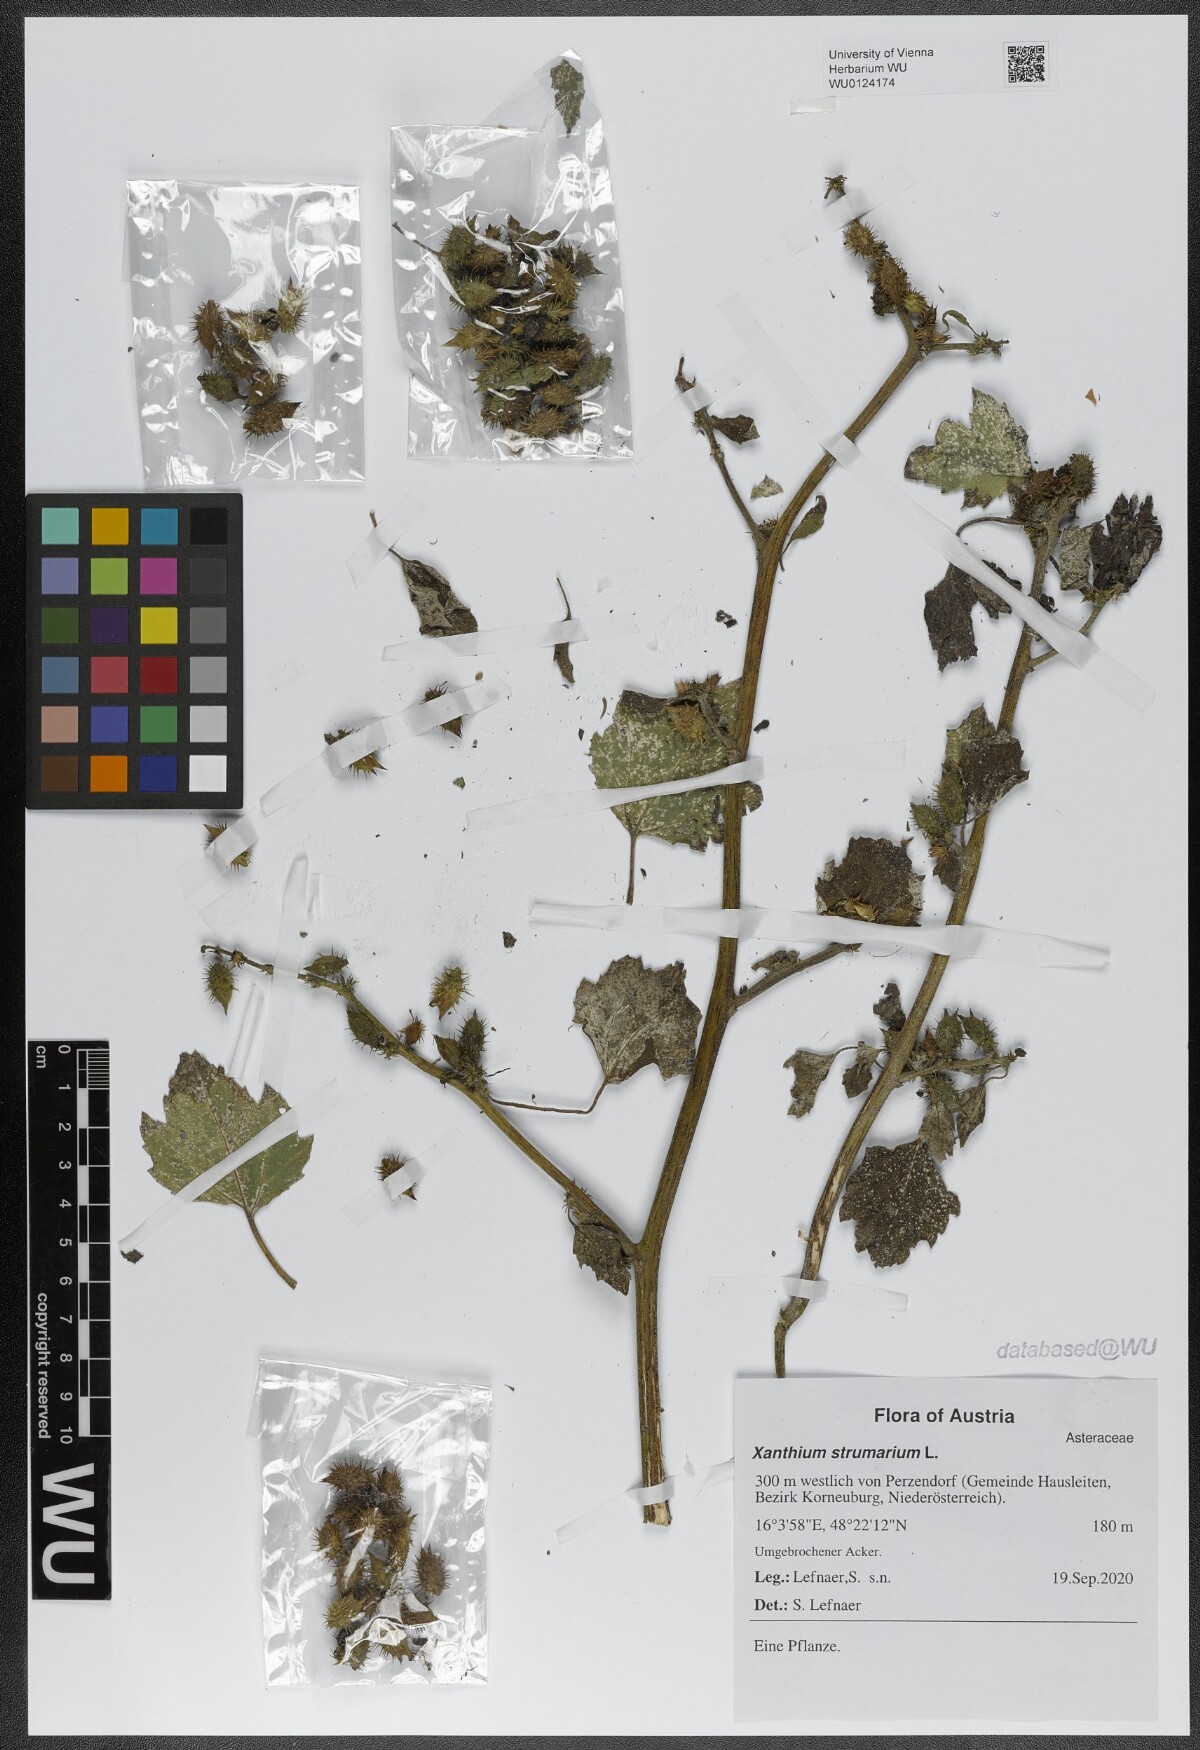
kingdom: Plantae
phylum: Tracheophyta
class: Magnoliopsida
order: Asterales
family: Asteraceae
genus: Xanthium
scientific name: Xanthium strumarium
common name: Rough cocklebur
